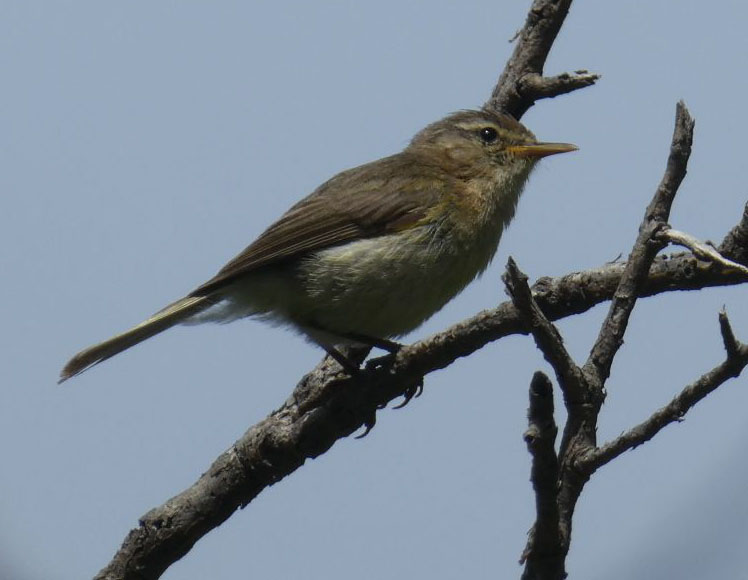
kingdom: Animalia
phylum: Chordata
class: Aves
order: Passeriformes
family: Phylloscopidae
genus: Phylloscopus
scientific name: Phylloscopus canariensis
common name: Canary islands chiffchaff
